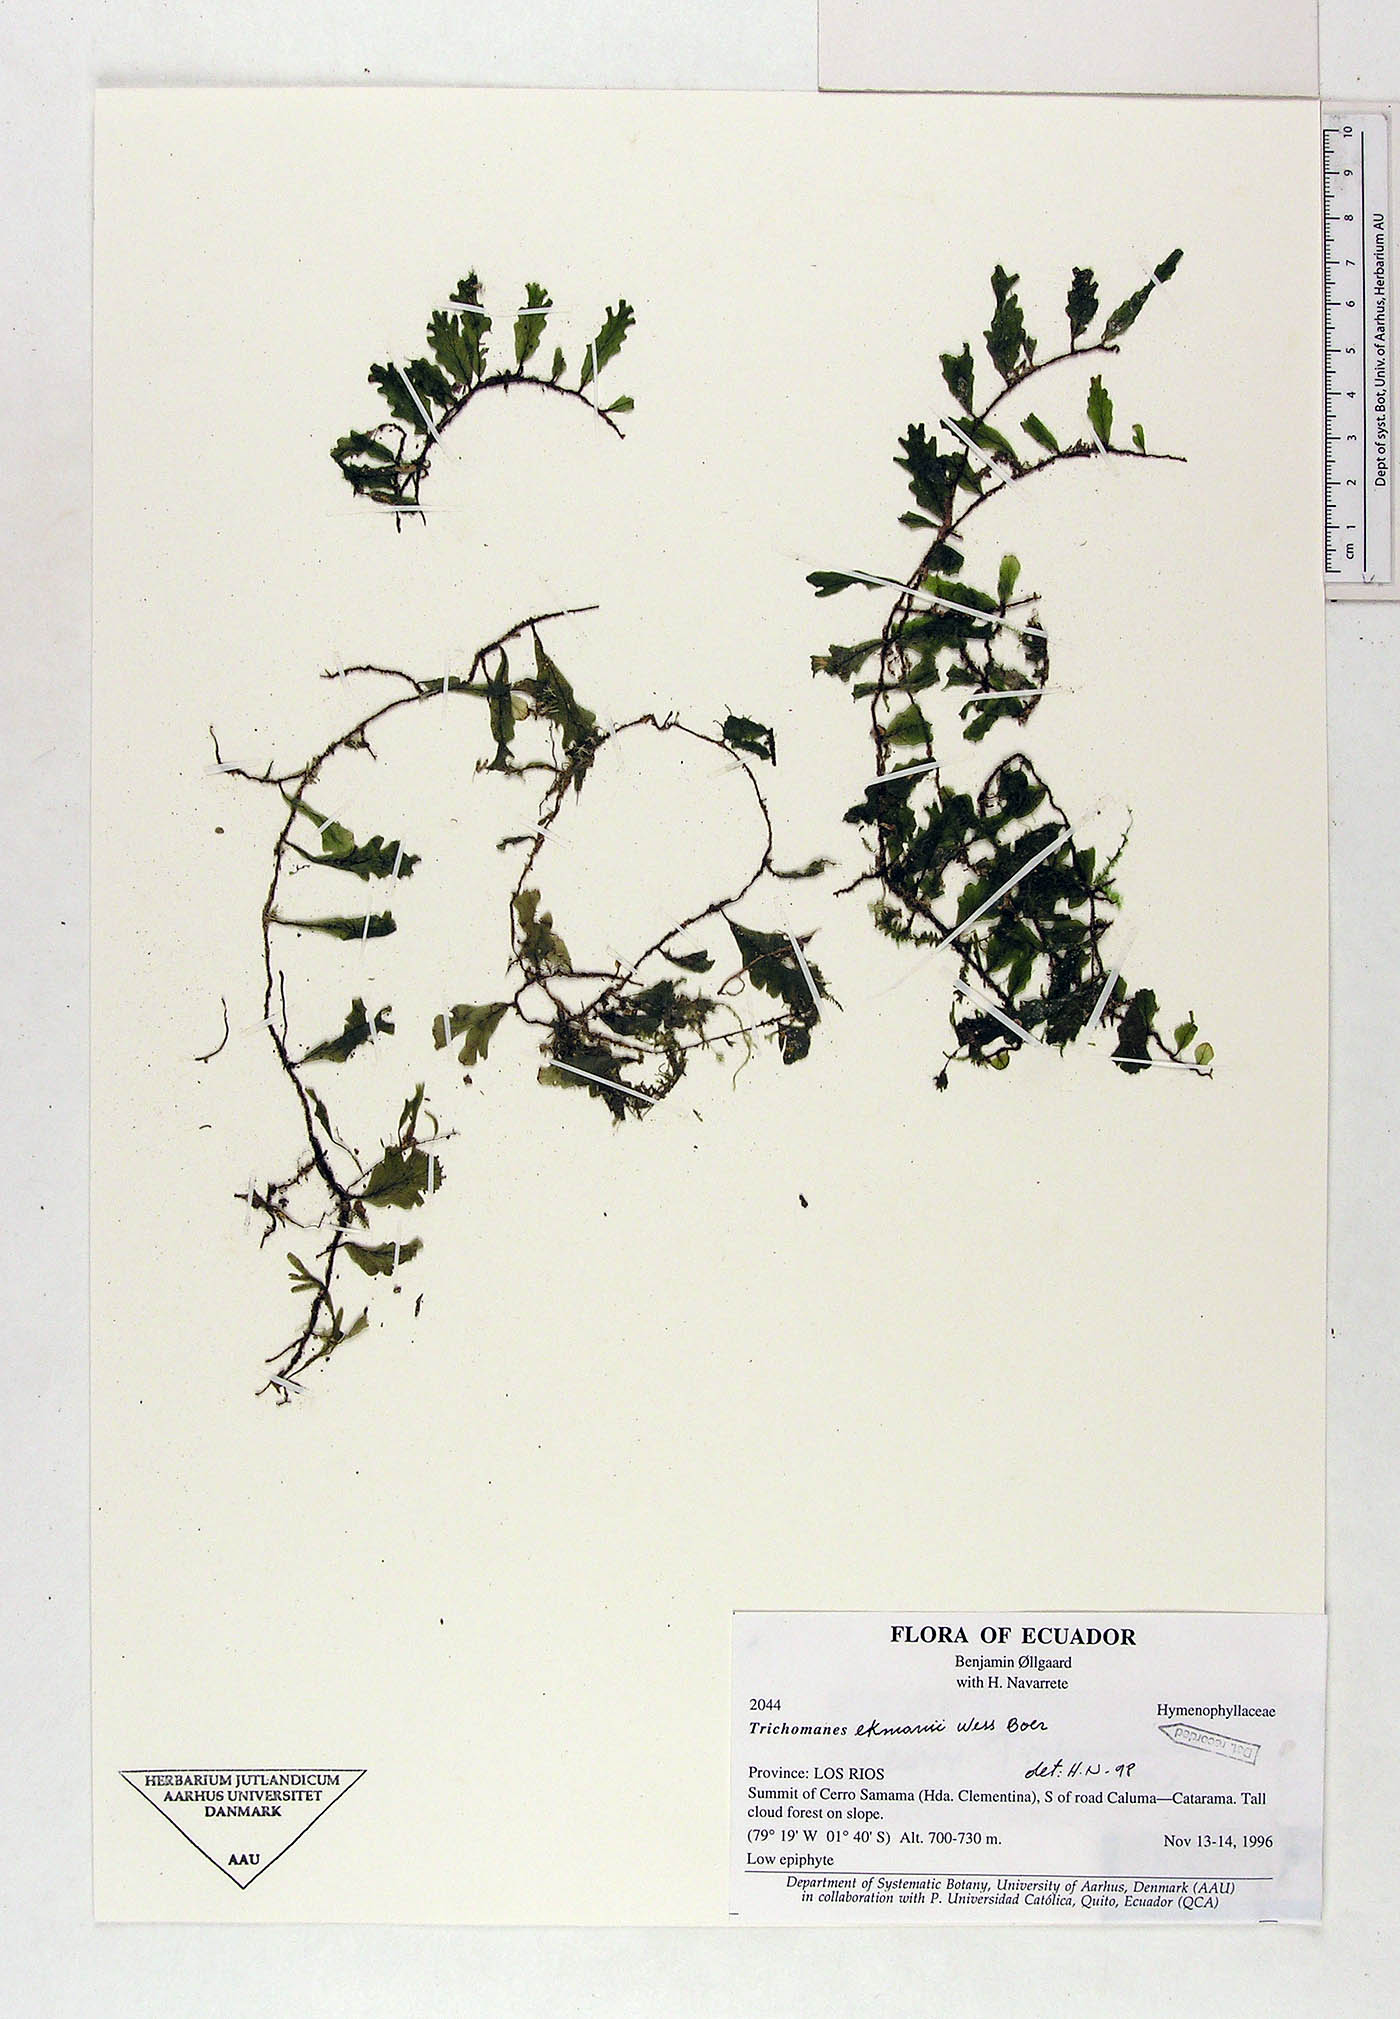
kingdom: Plantae
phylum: Tracheophyta
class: Polypodiopsida
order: Hymenophyllales
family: Hymenophyllaceae
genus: Didymoglossum
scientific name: Didymoglossum ekmanii
